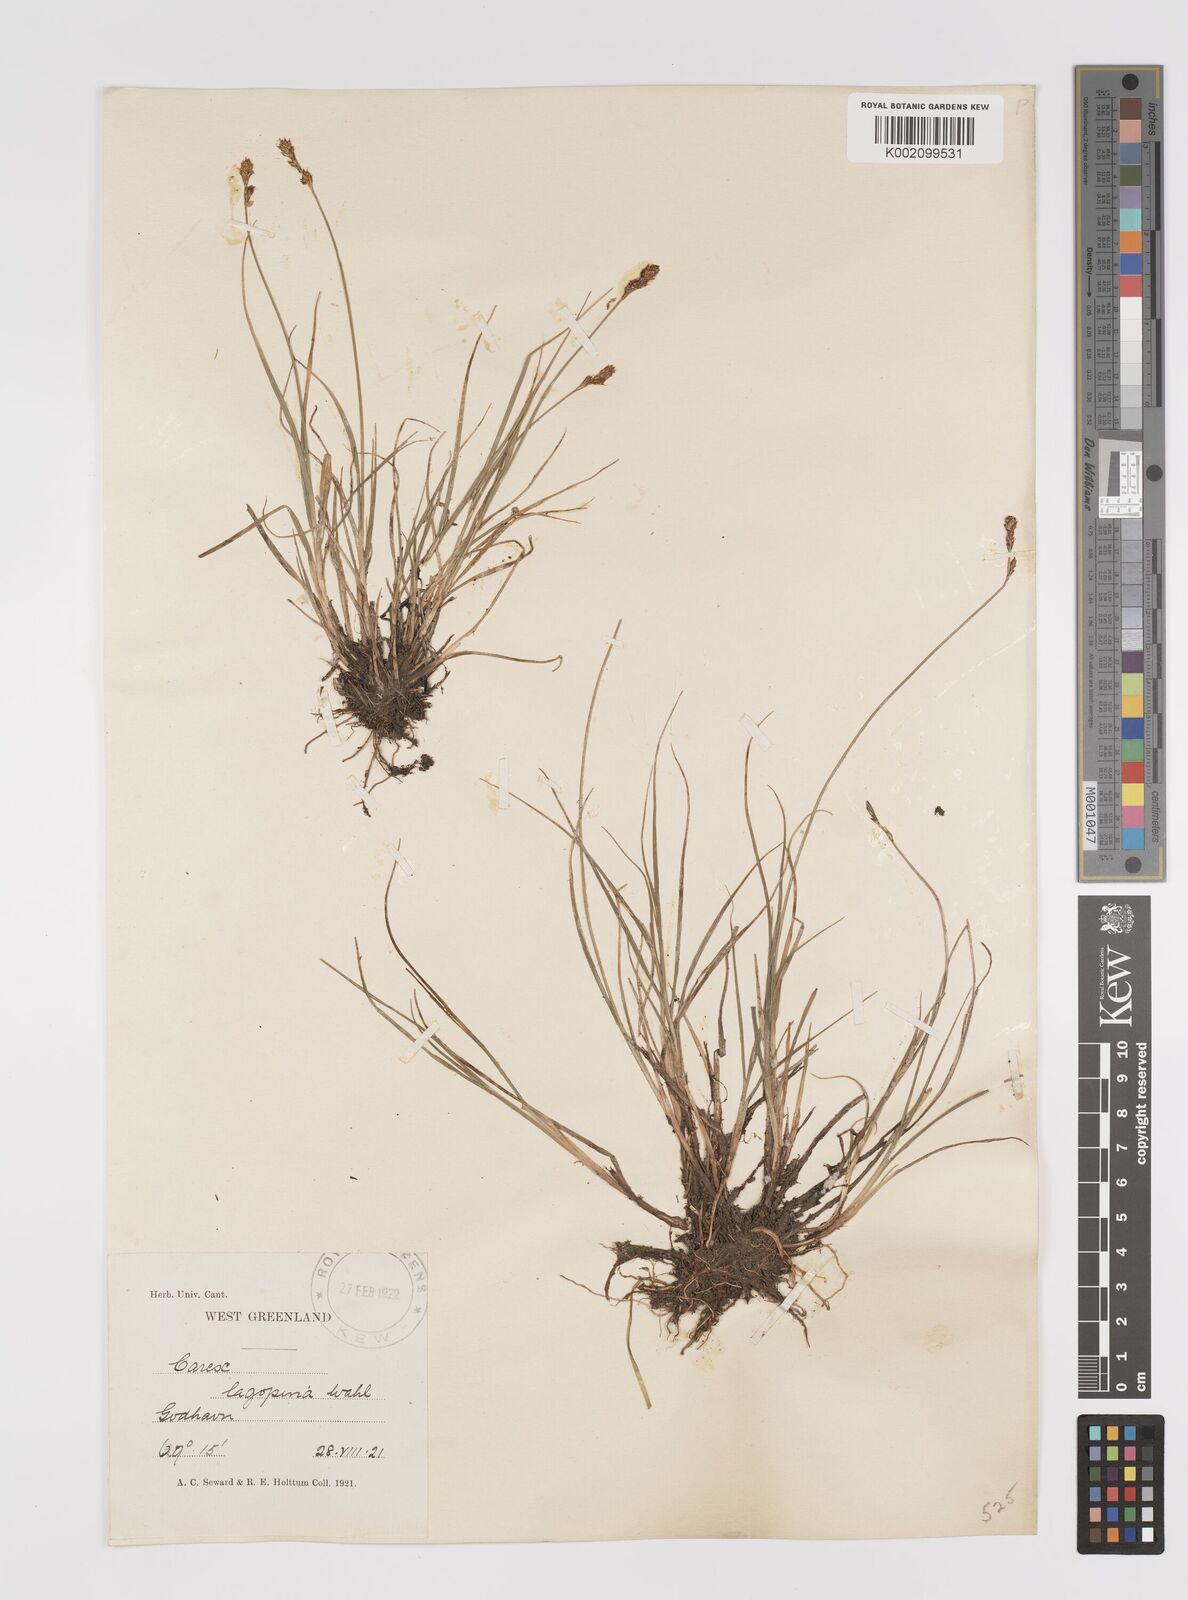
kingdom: Plantae
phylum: Tracheophyta
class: Liliopsida
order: Poales
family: Cyperaceae
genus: Carex
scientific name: Carex lachenalii
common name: Hare's-foot sedge
